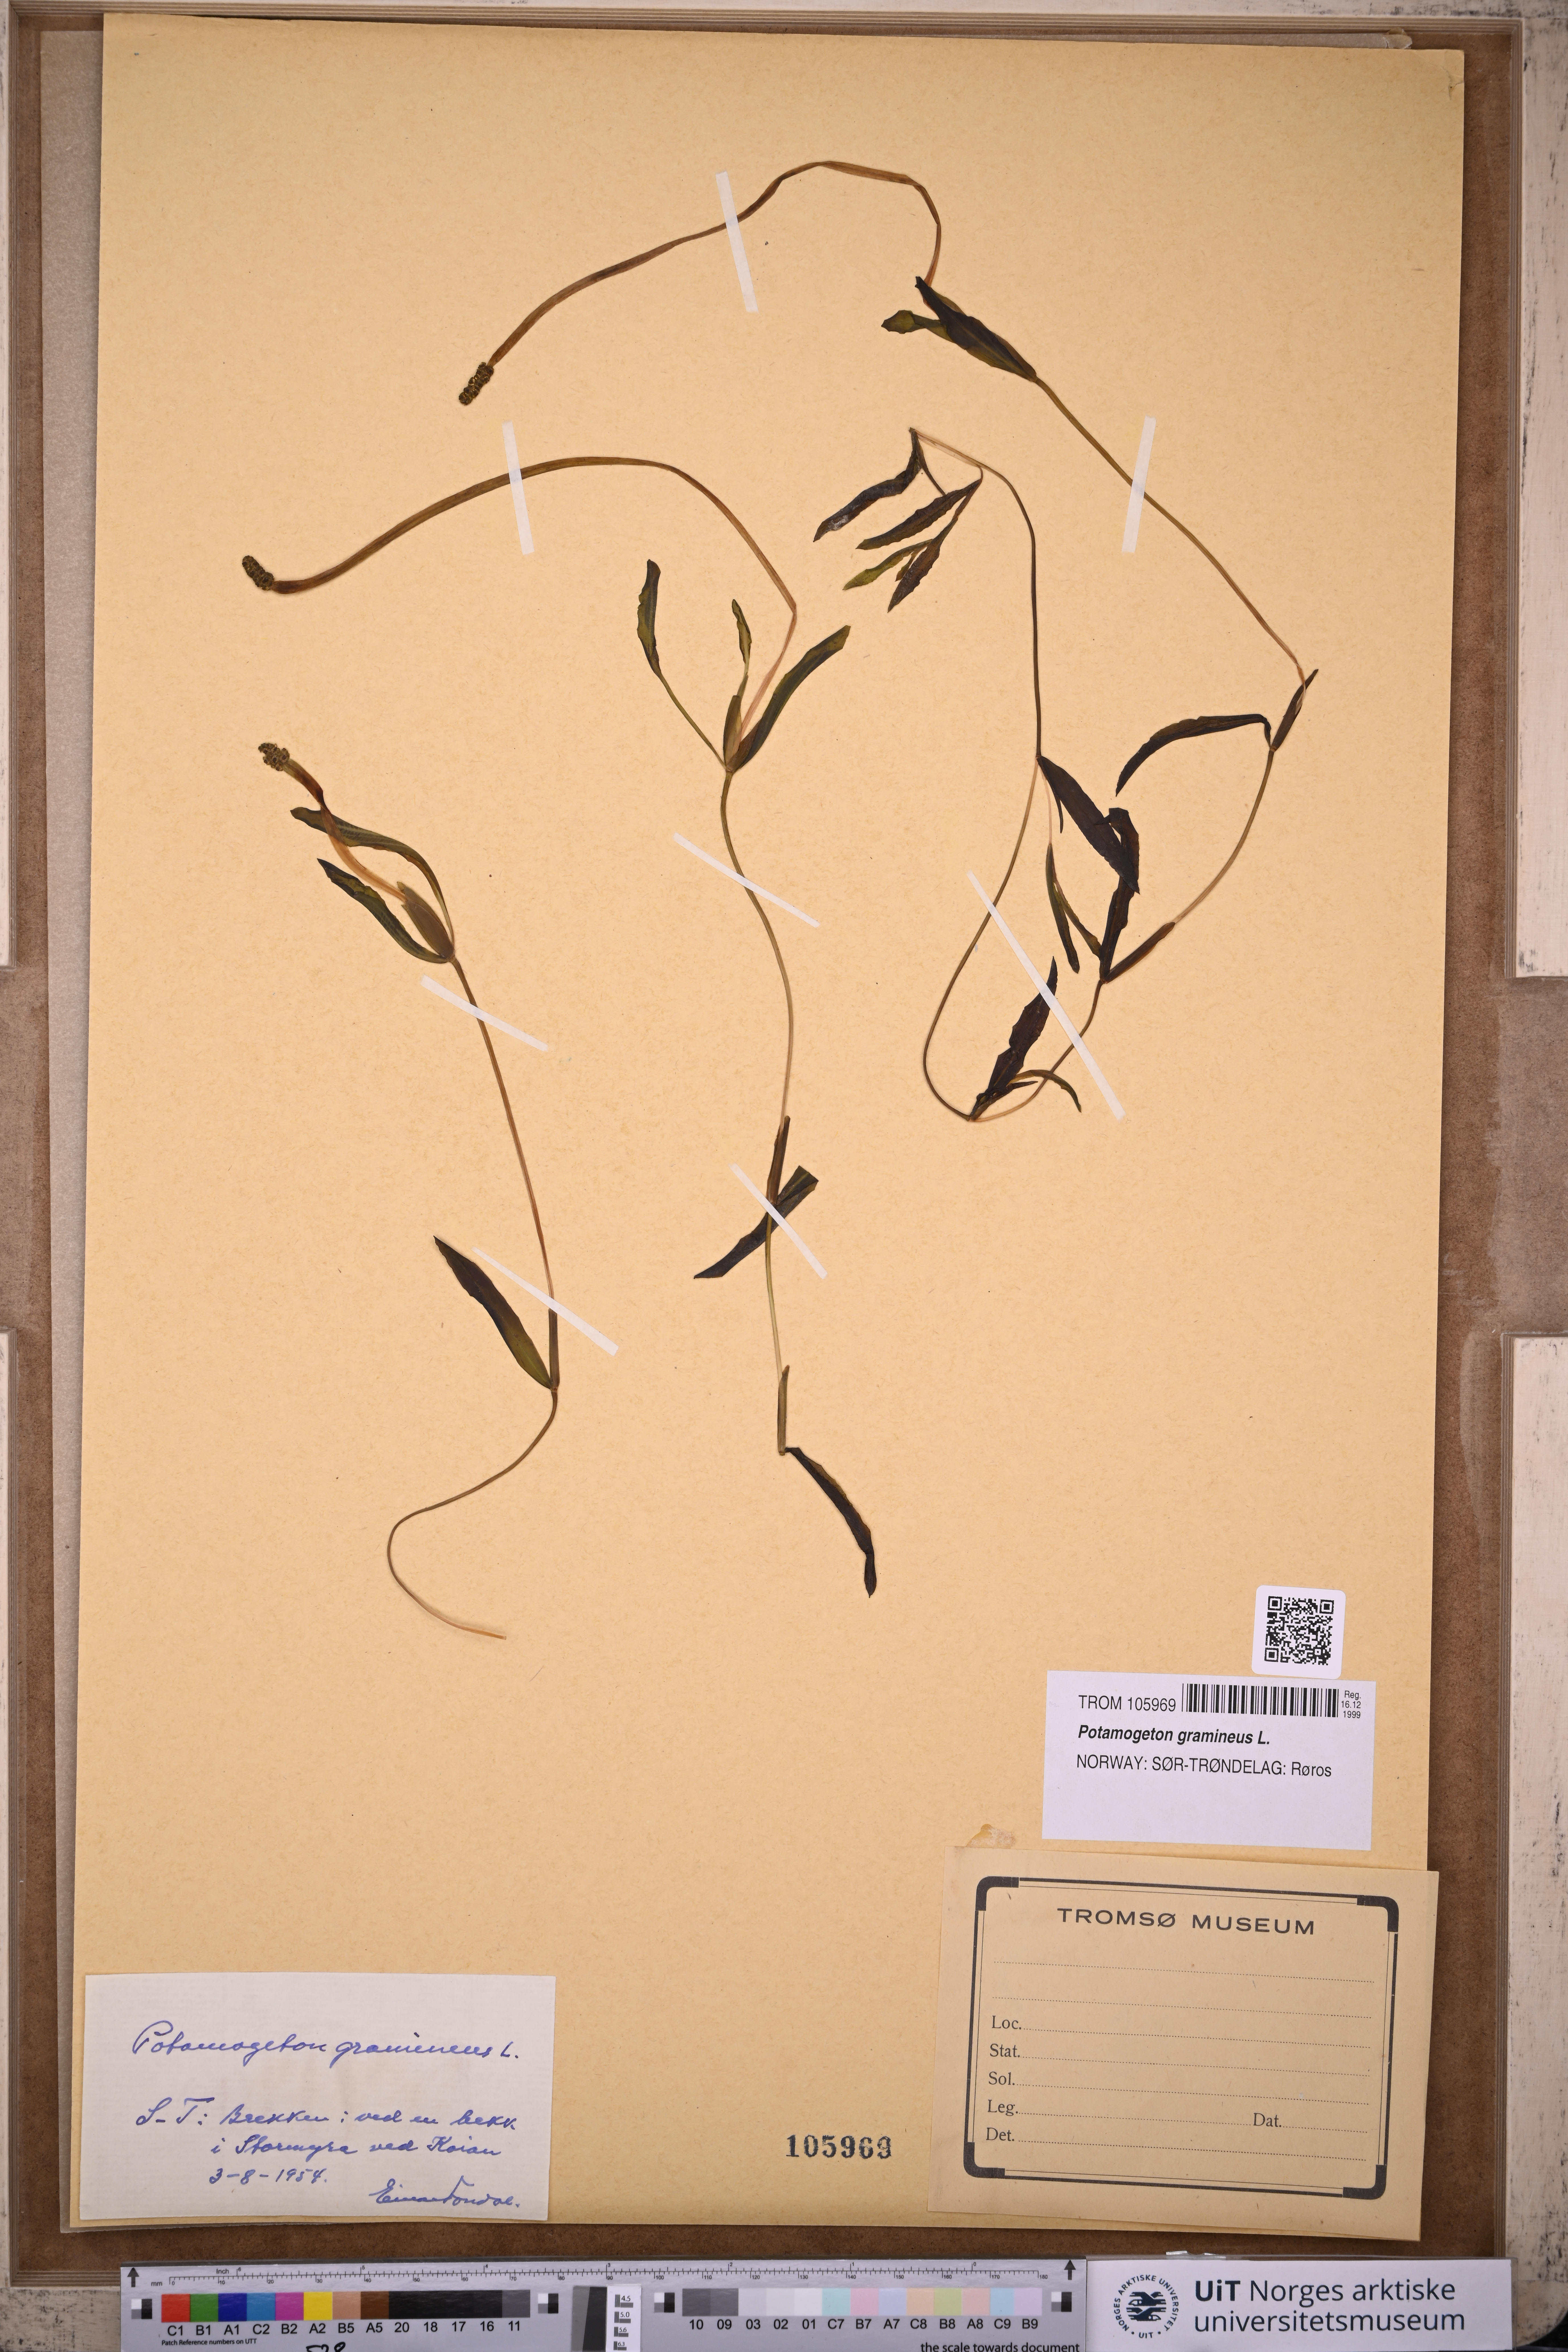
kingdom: Plantae
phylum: Tracheophyta
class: Liliopsida
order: Alismatales
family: Potamogetonaceae
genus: Potamogeton
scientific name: Potamogeton gramineus
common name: Various-leaved pondweed
